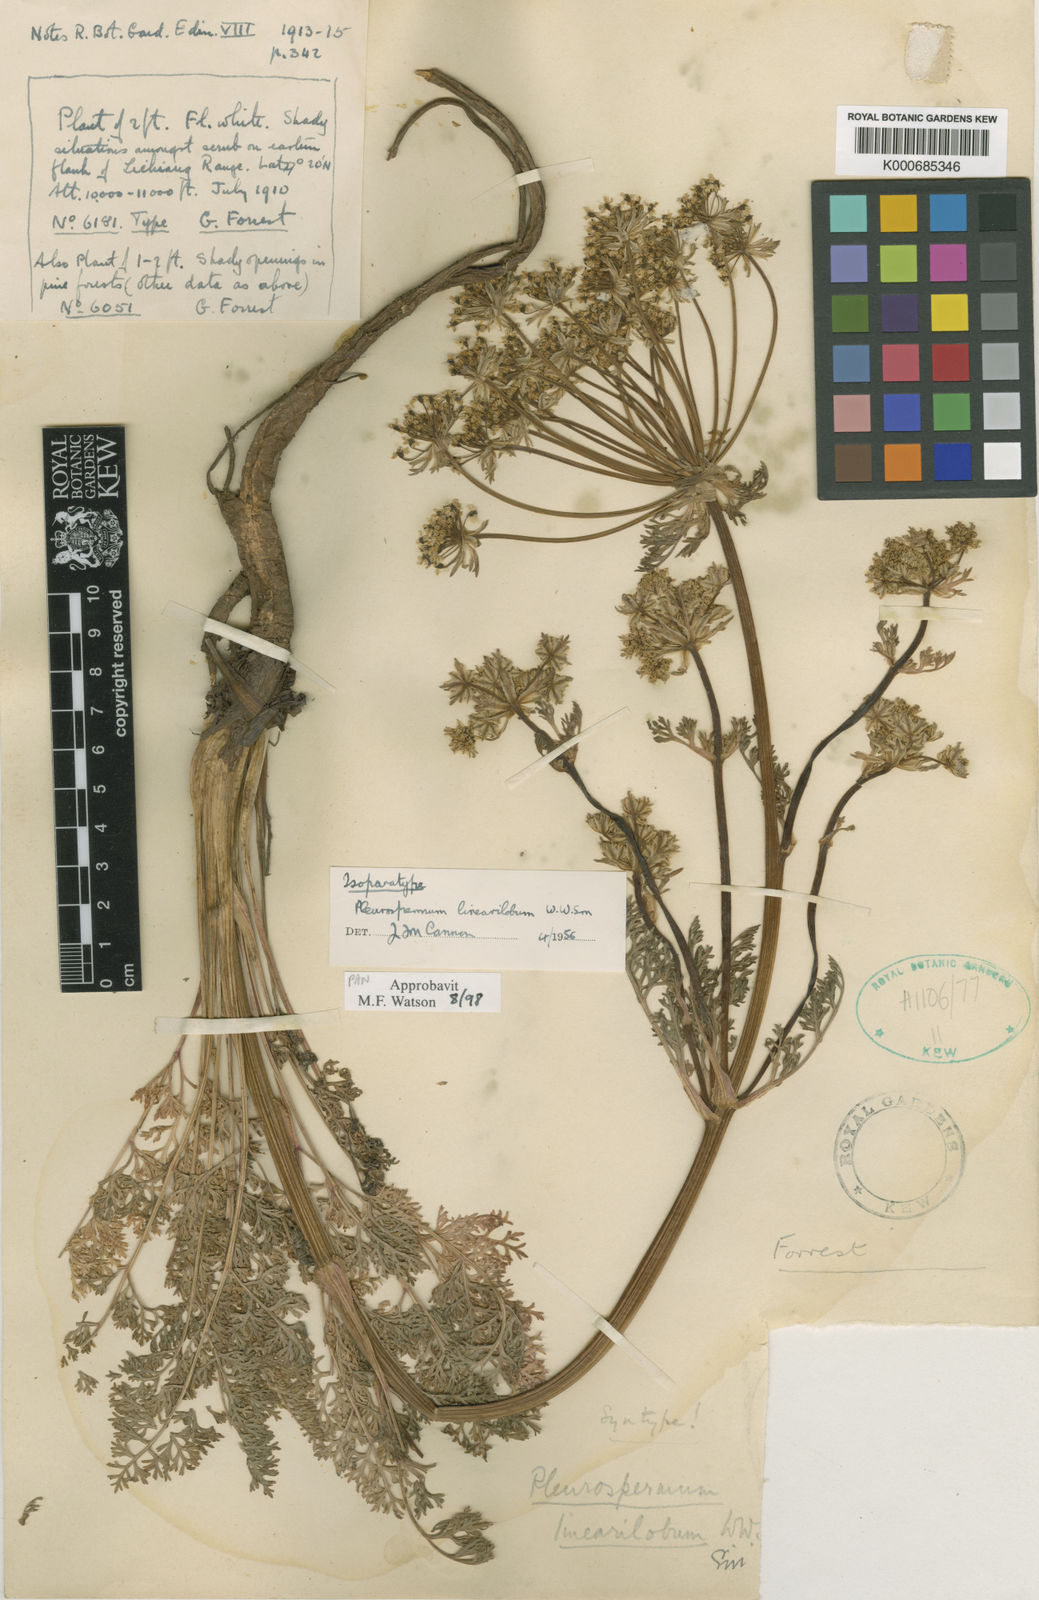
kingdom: Plantae
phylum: Tracheophyta
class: Magnoliopsida
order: Apiales
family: Apiaceae
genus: Hymenidium
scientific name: Hymenidium linearilobum
